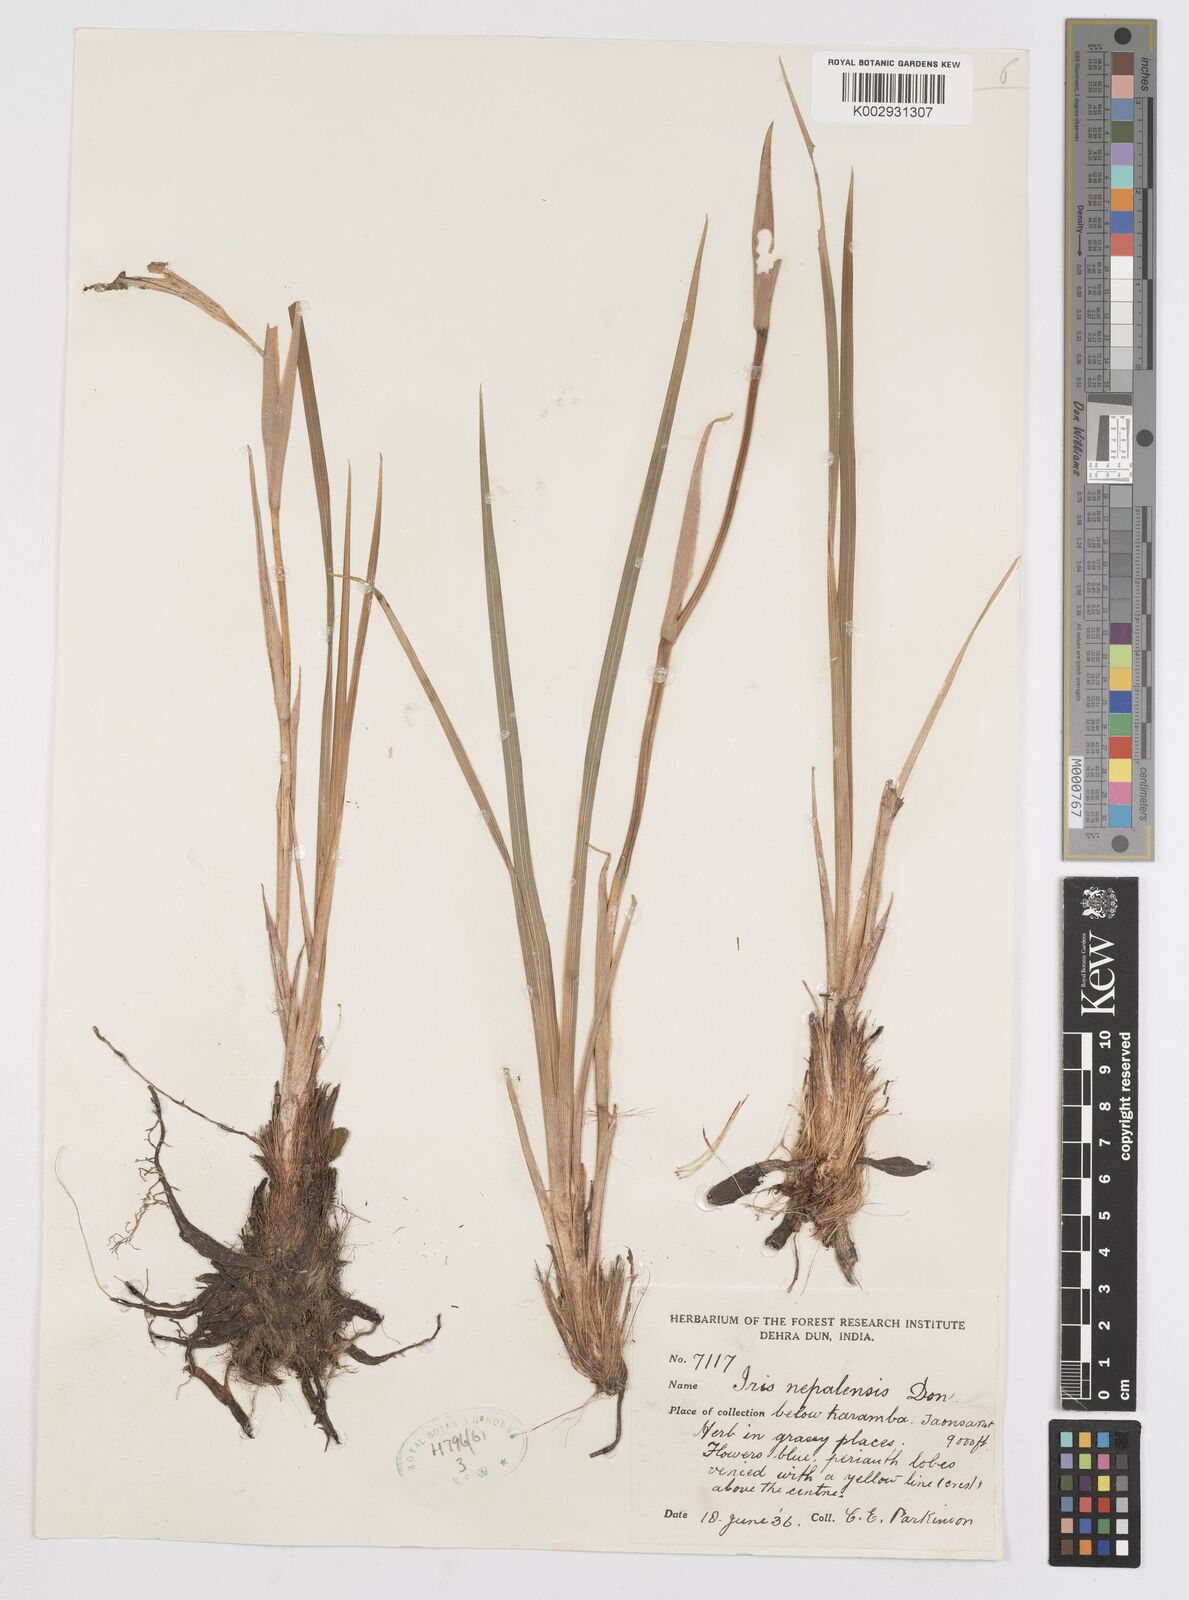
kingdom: Plantae
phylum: Tracheophyta
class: Liliopsida
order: Asparagales
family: Iridaceae
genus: Iris
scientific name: Iris decora
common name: Nepal iris
